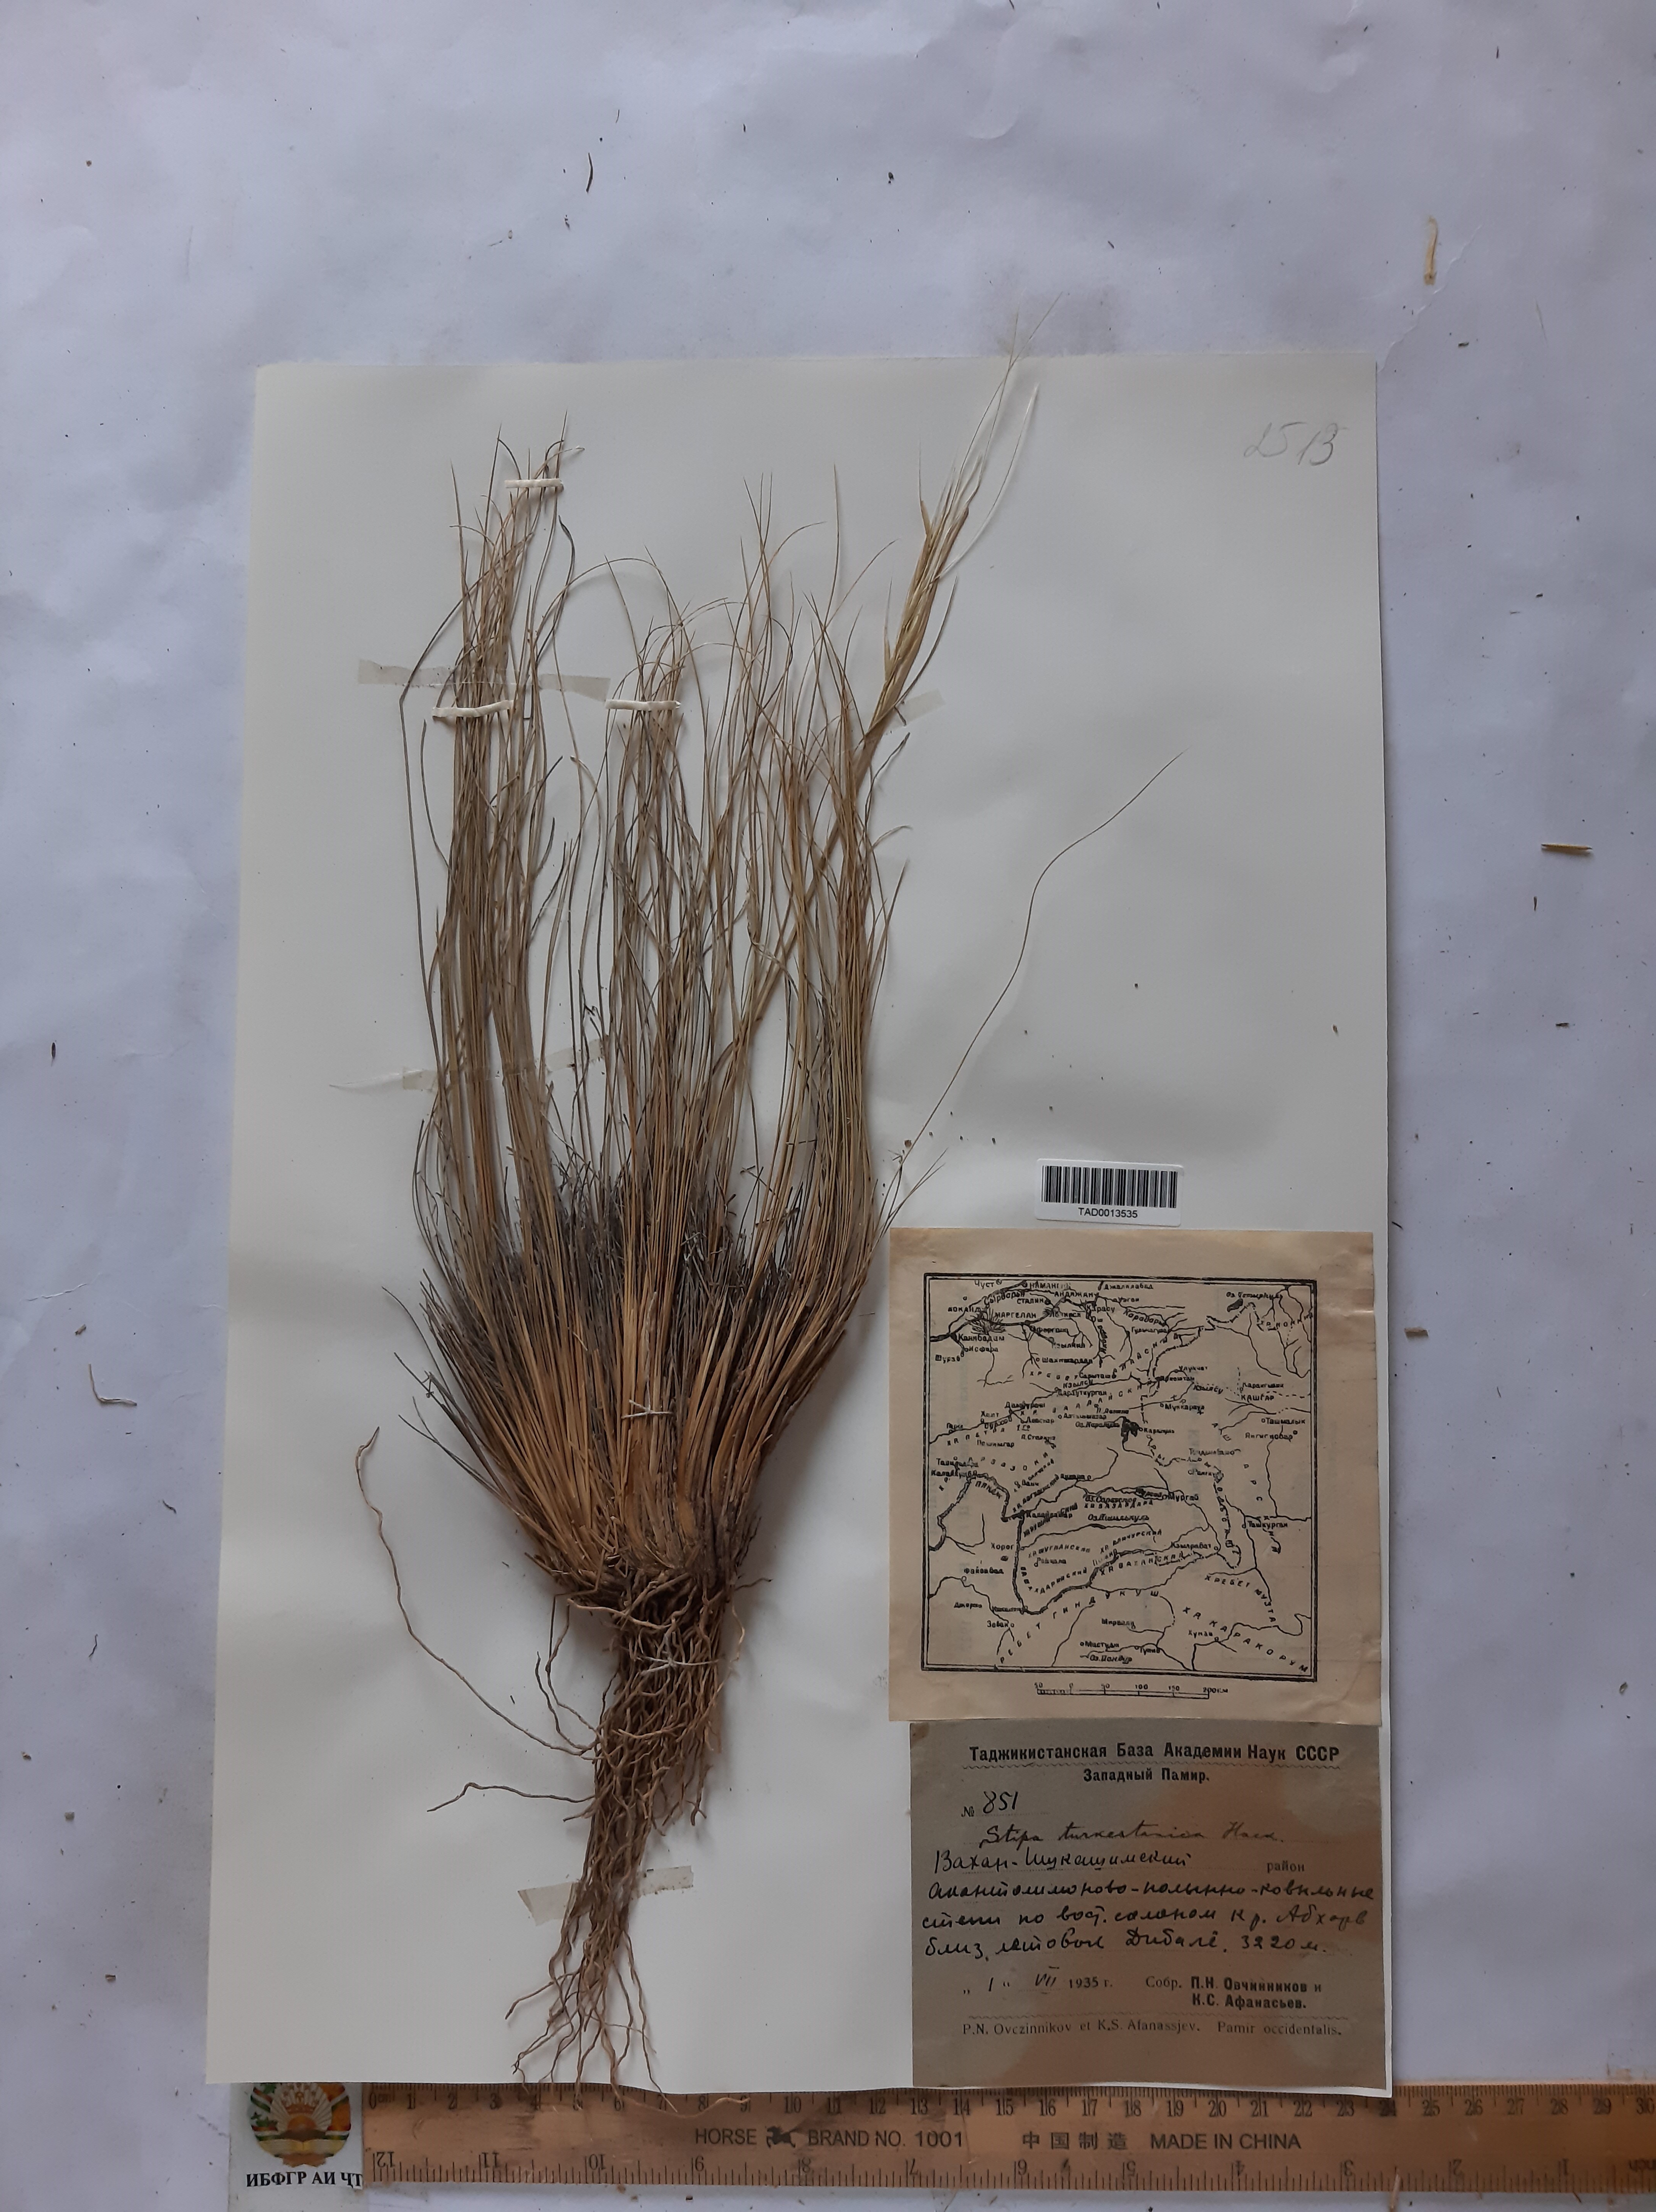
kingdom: Plantae
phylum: Tracheophyta
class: Liliopsida
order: Poales
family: Poaceae
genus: Stipa
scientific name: Stipa turkestanica
